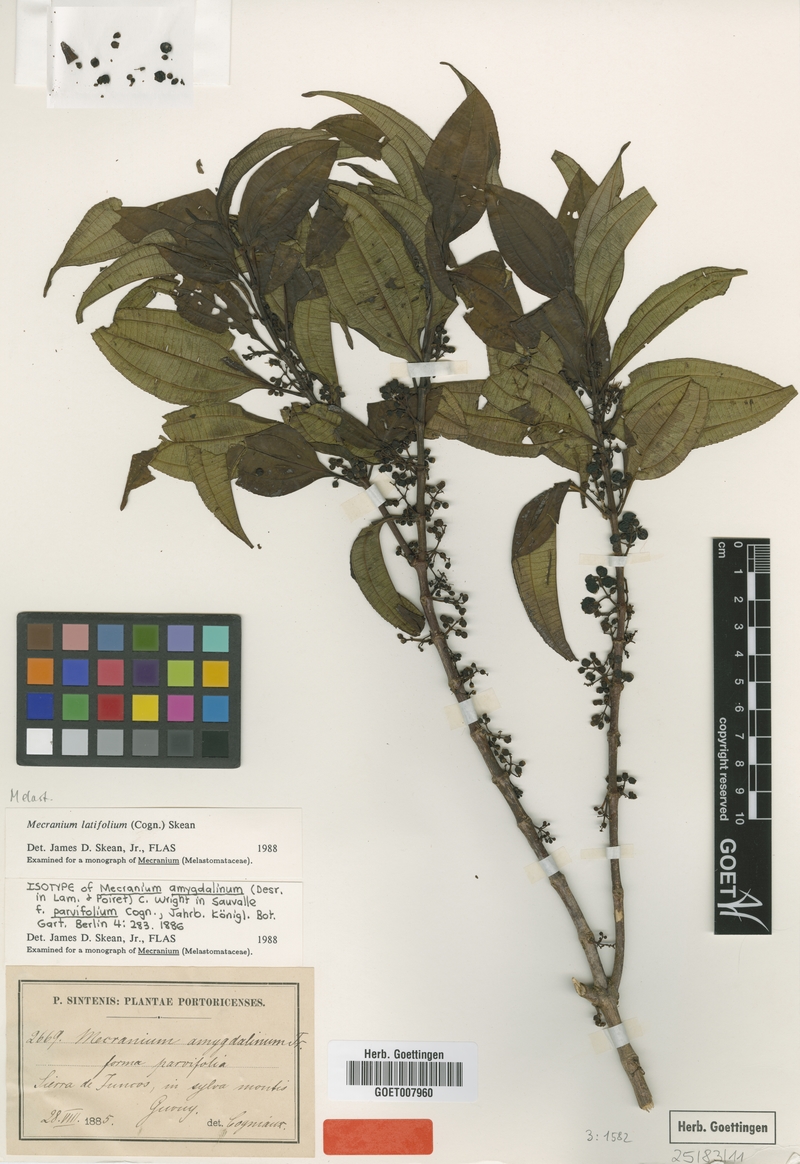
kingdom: Plantae
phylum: Tracheophyta
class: Magnoliopsida
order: Myrtales
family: Melastomataceae
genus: Miconia
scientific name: Miconia borinquensis
